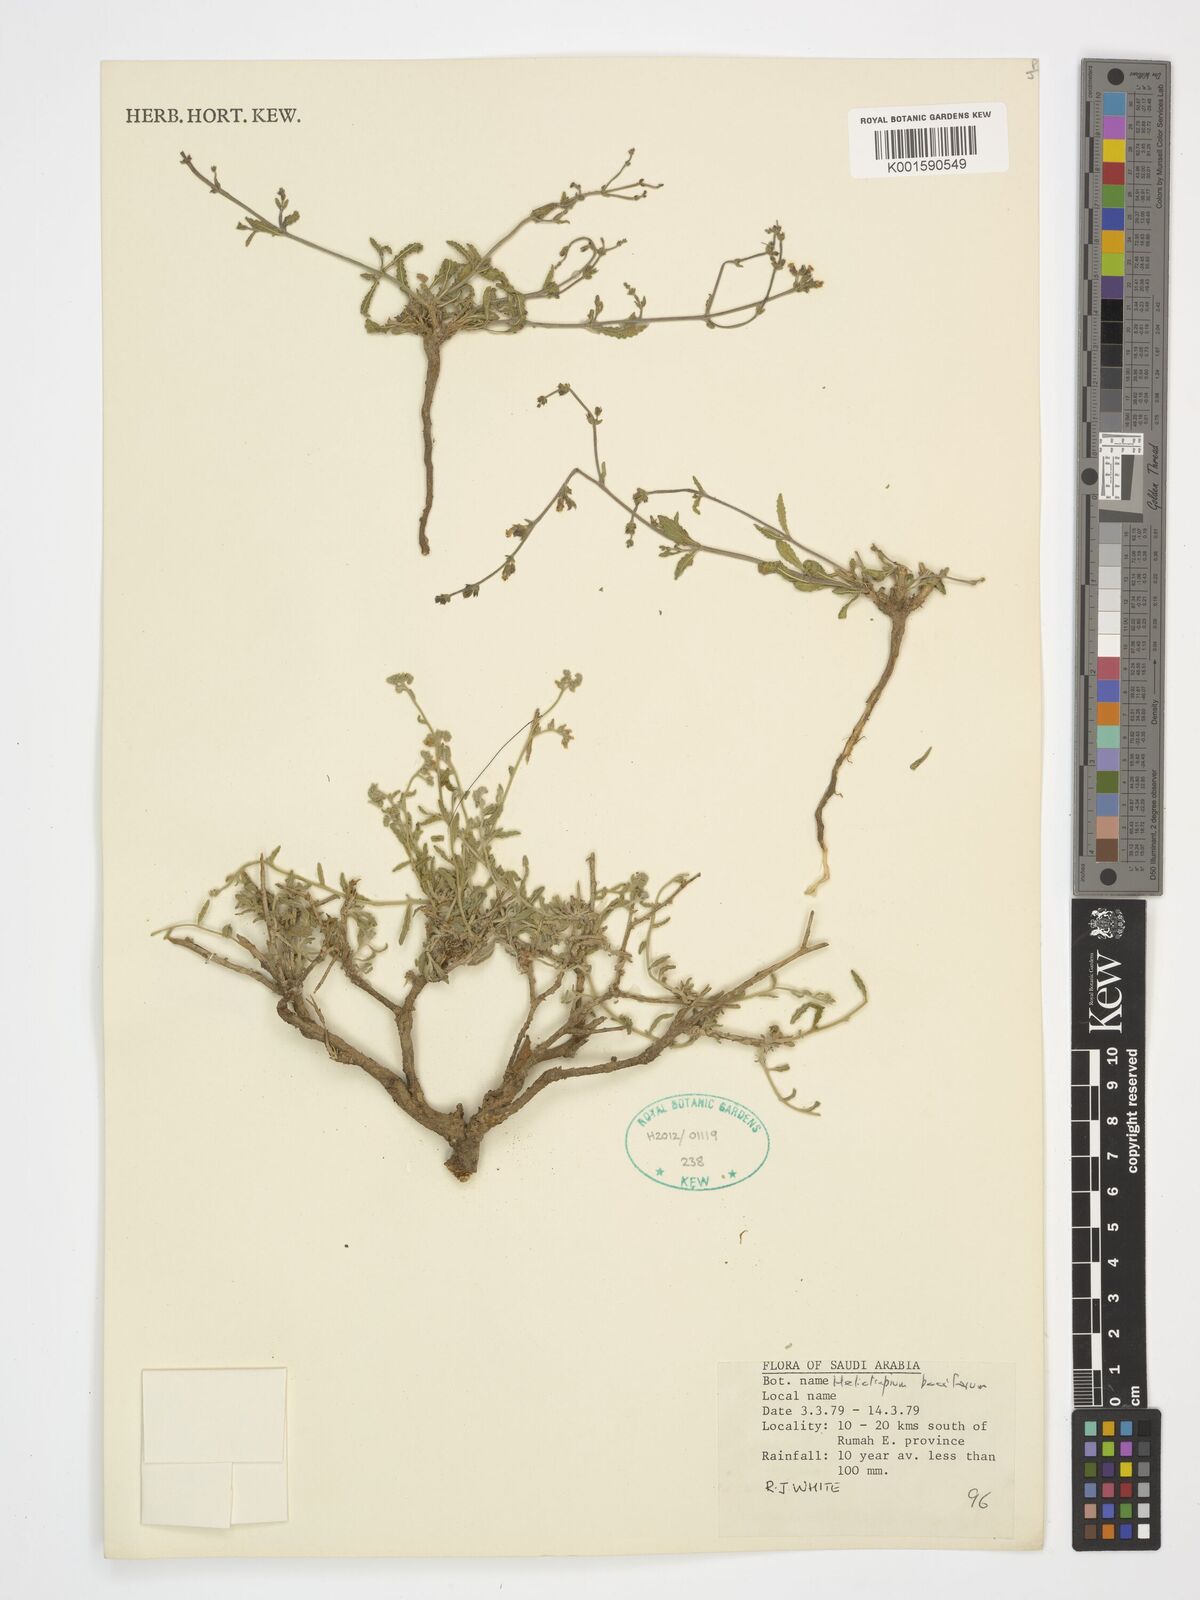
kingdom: Plantae
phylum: Tracheophyta
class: Magnoliopsida
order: Boraginales
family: Heliotropiaceae
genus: Heliotropium
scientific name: Heliotropium bacciferum
